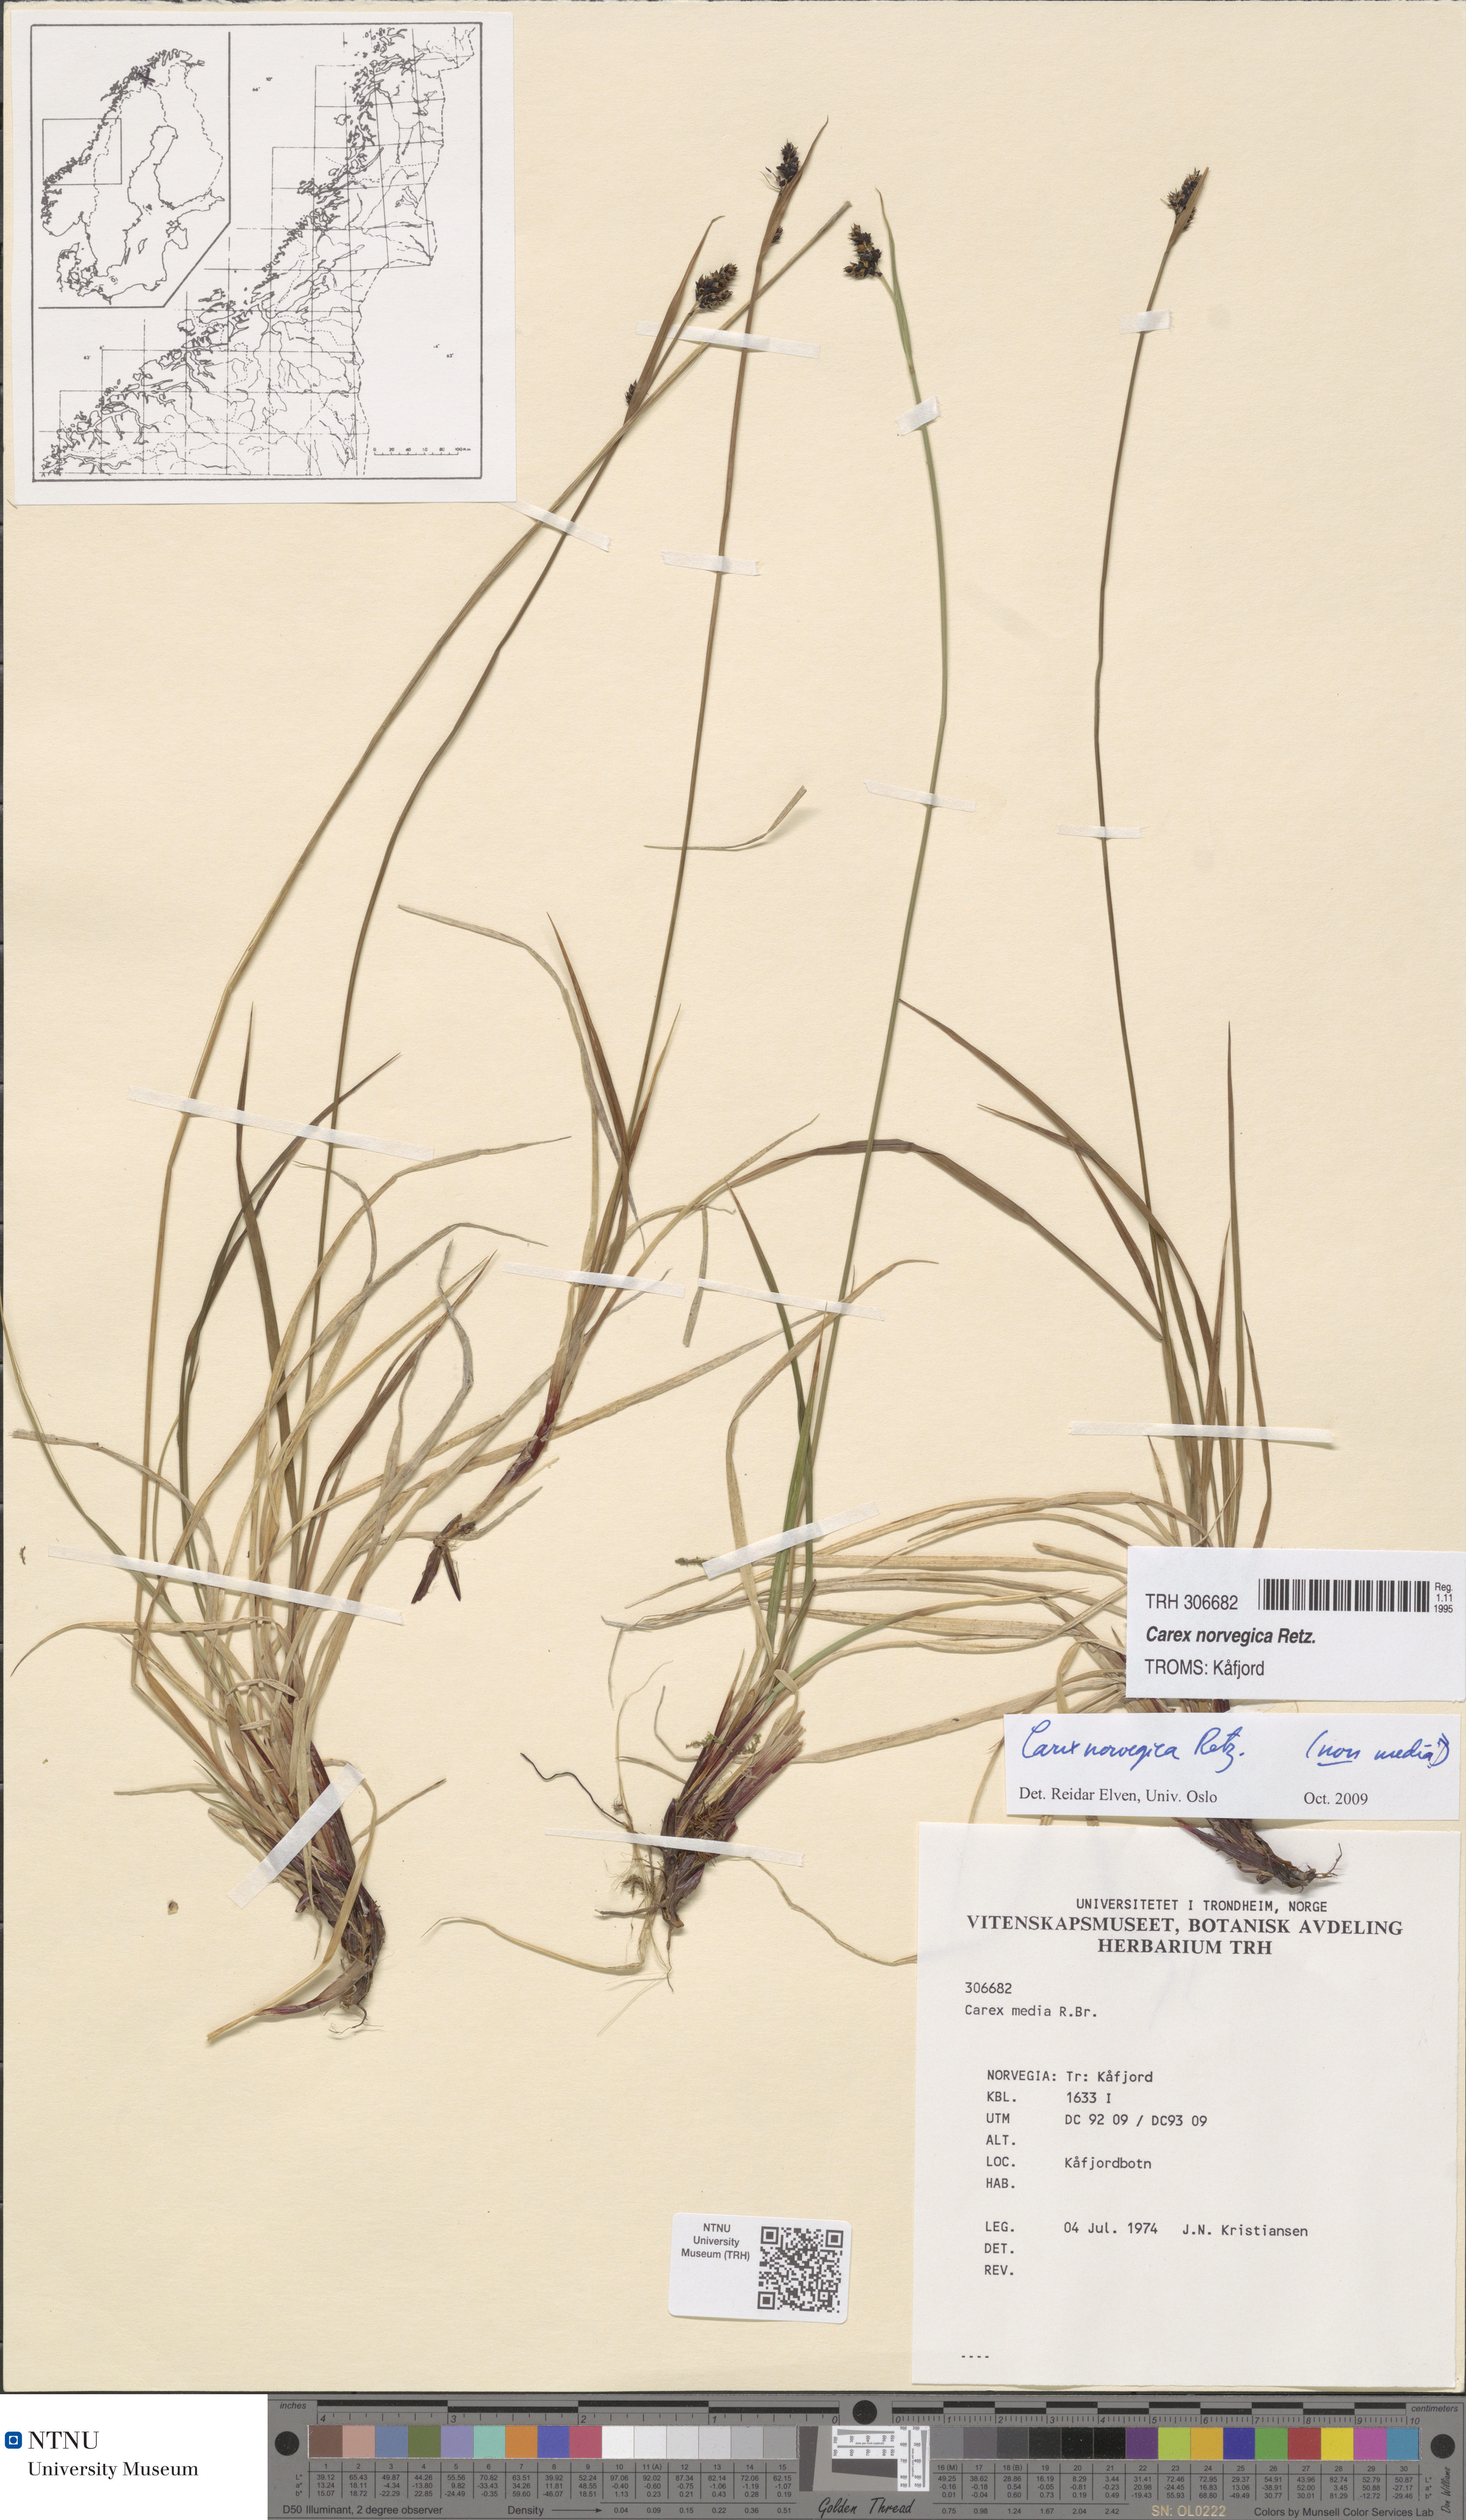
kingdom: Plantae
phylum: Tracheophyta
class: Liliopsida
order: Poales
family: Cyperaceae
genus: Carex
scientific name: Carex norvegica
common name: Close-headed alpine-sedge
